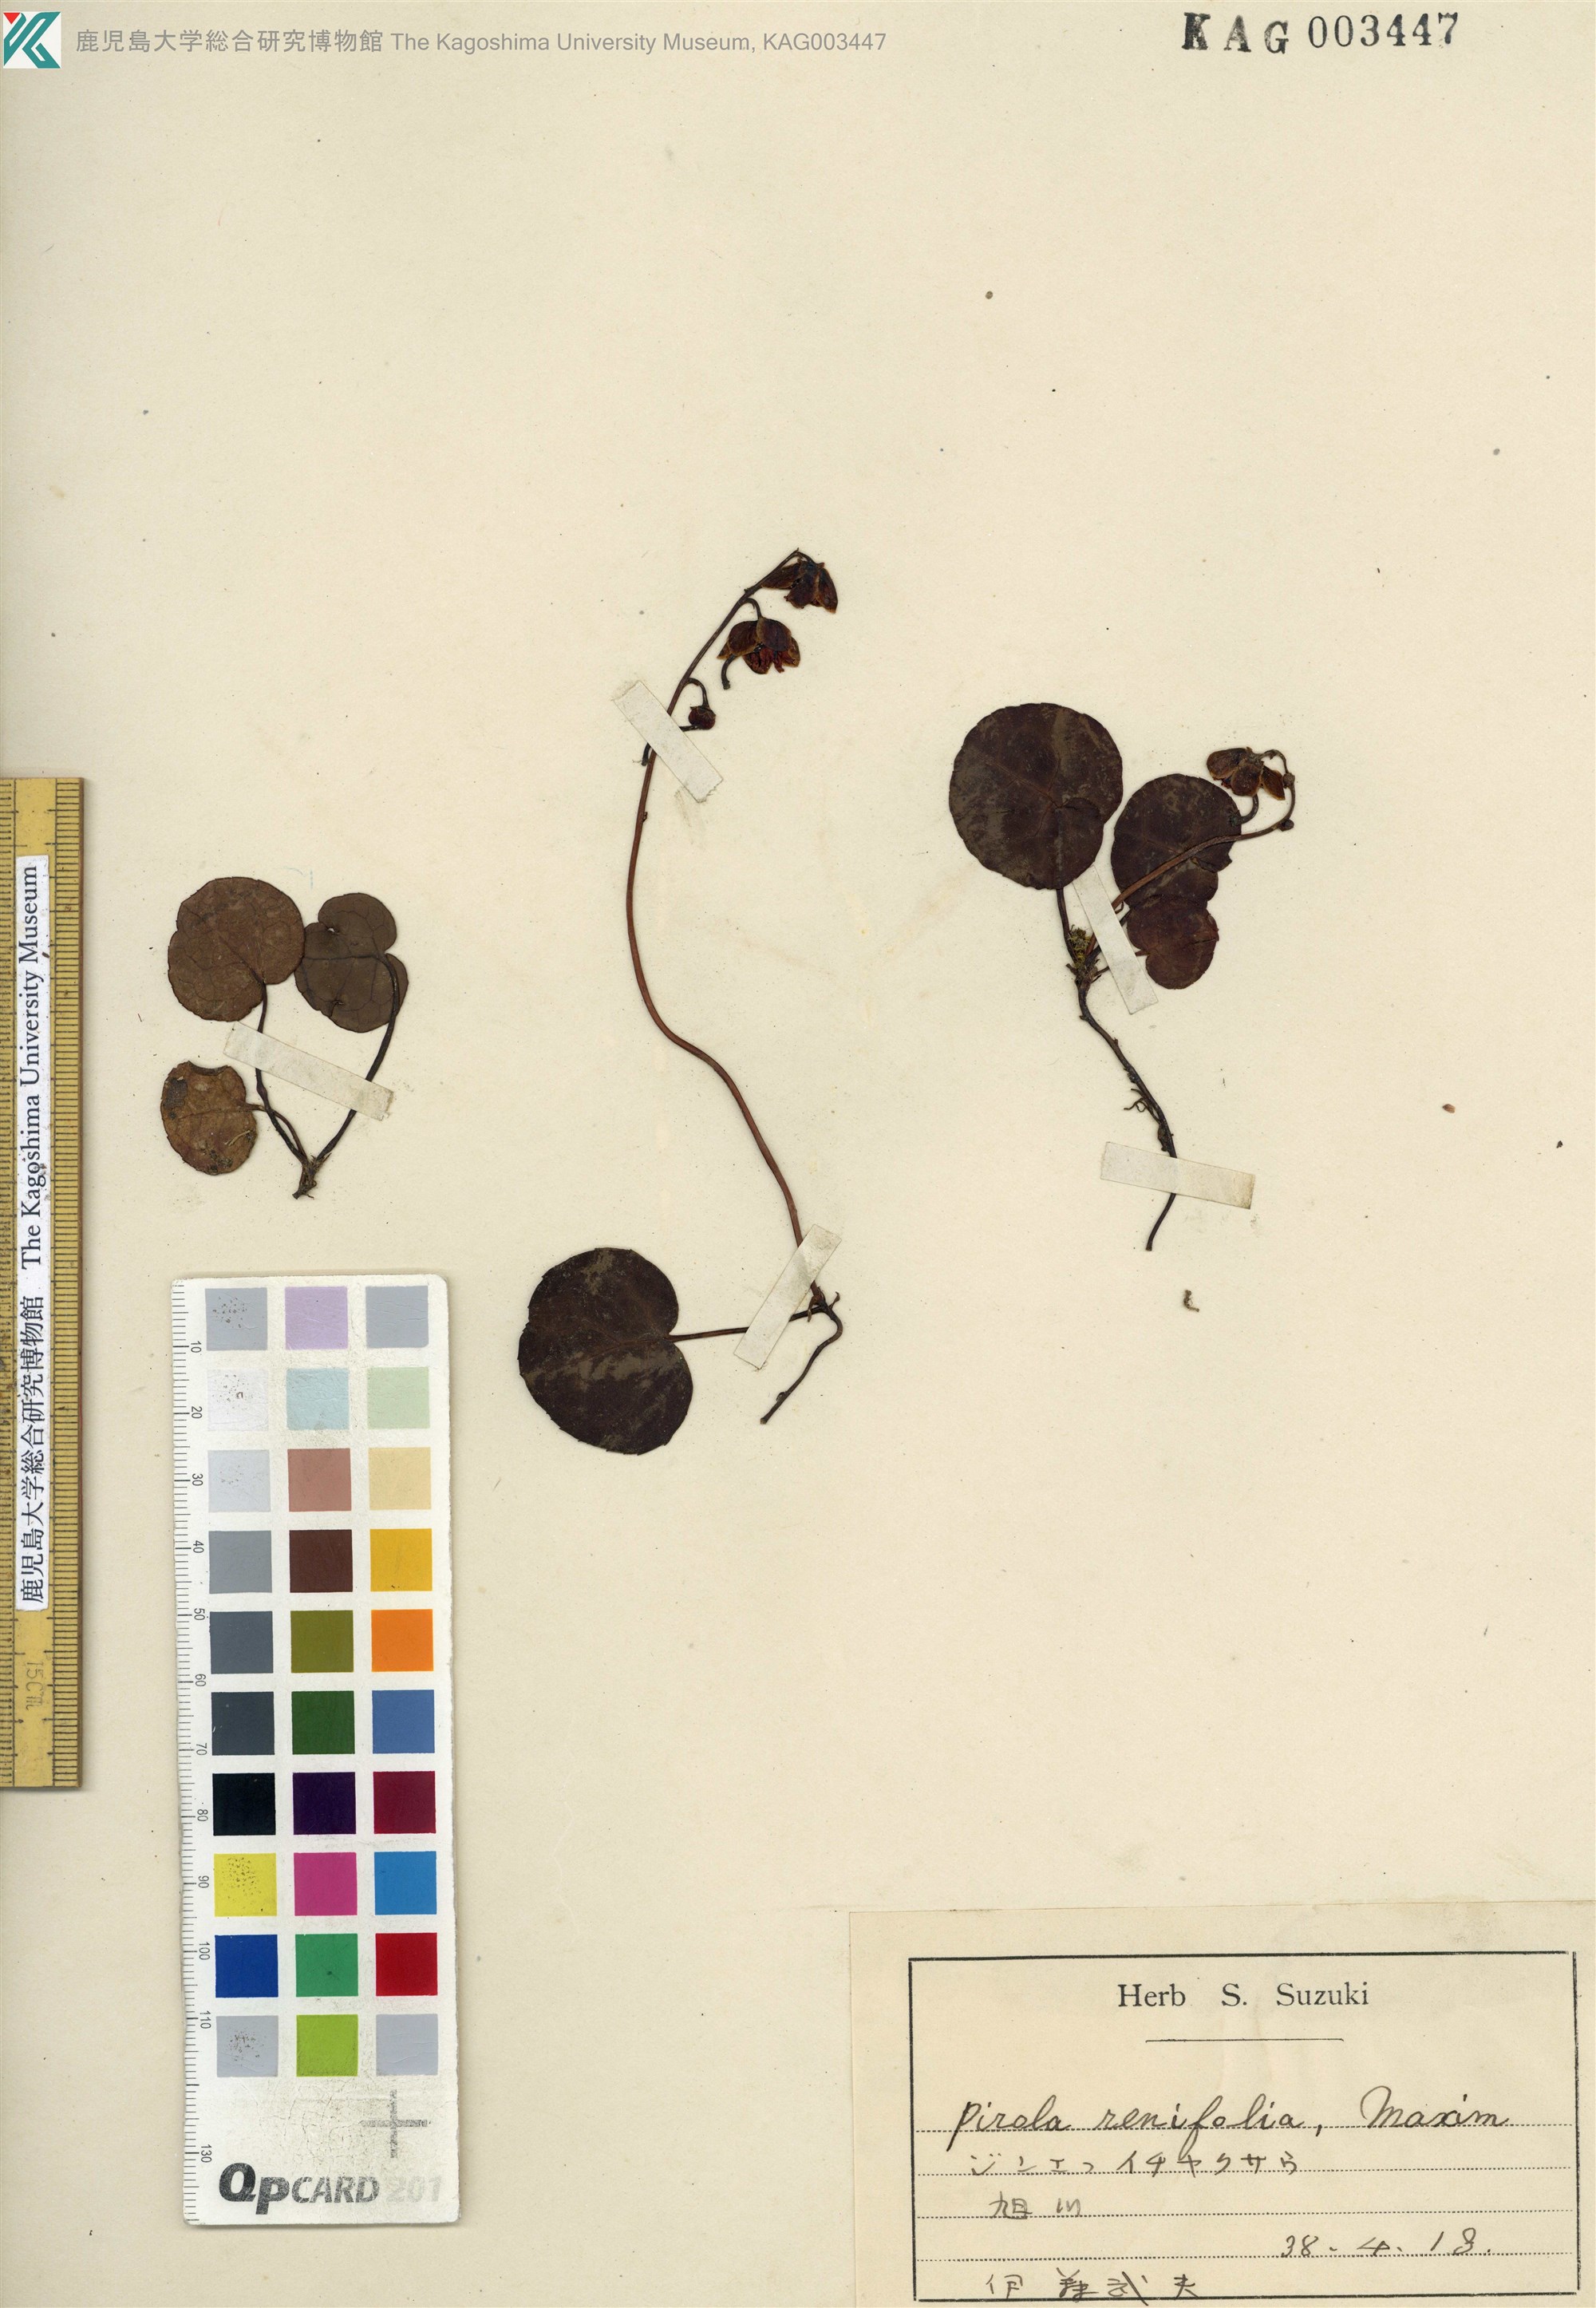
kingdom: Plantae
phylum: Tracheophyta
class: Magnoliopsida
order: Ericales
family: Ericaceae
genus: Pyrola
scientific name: Pyrola renifolia
